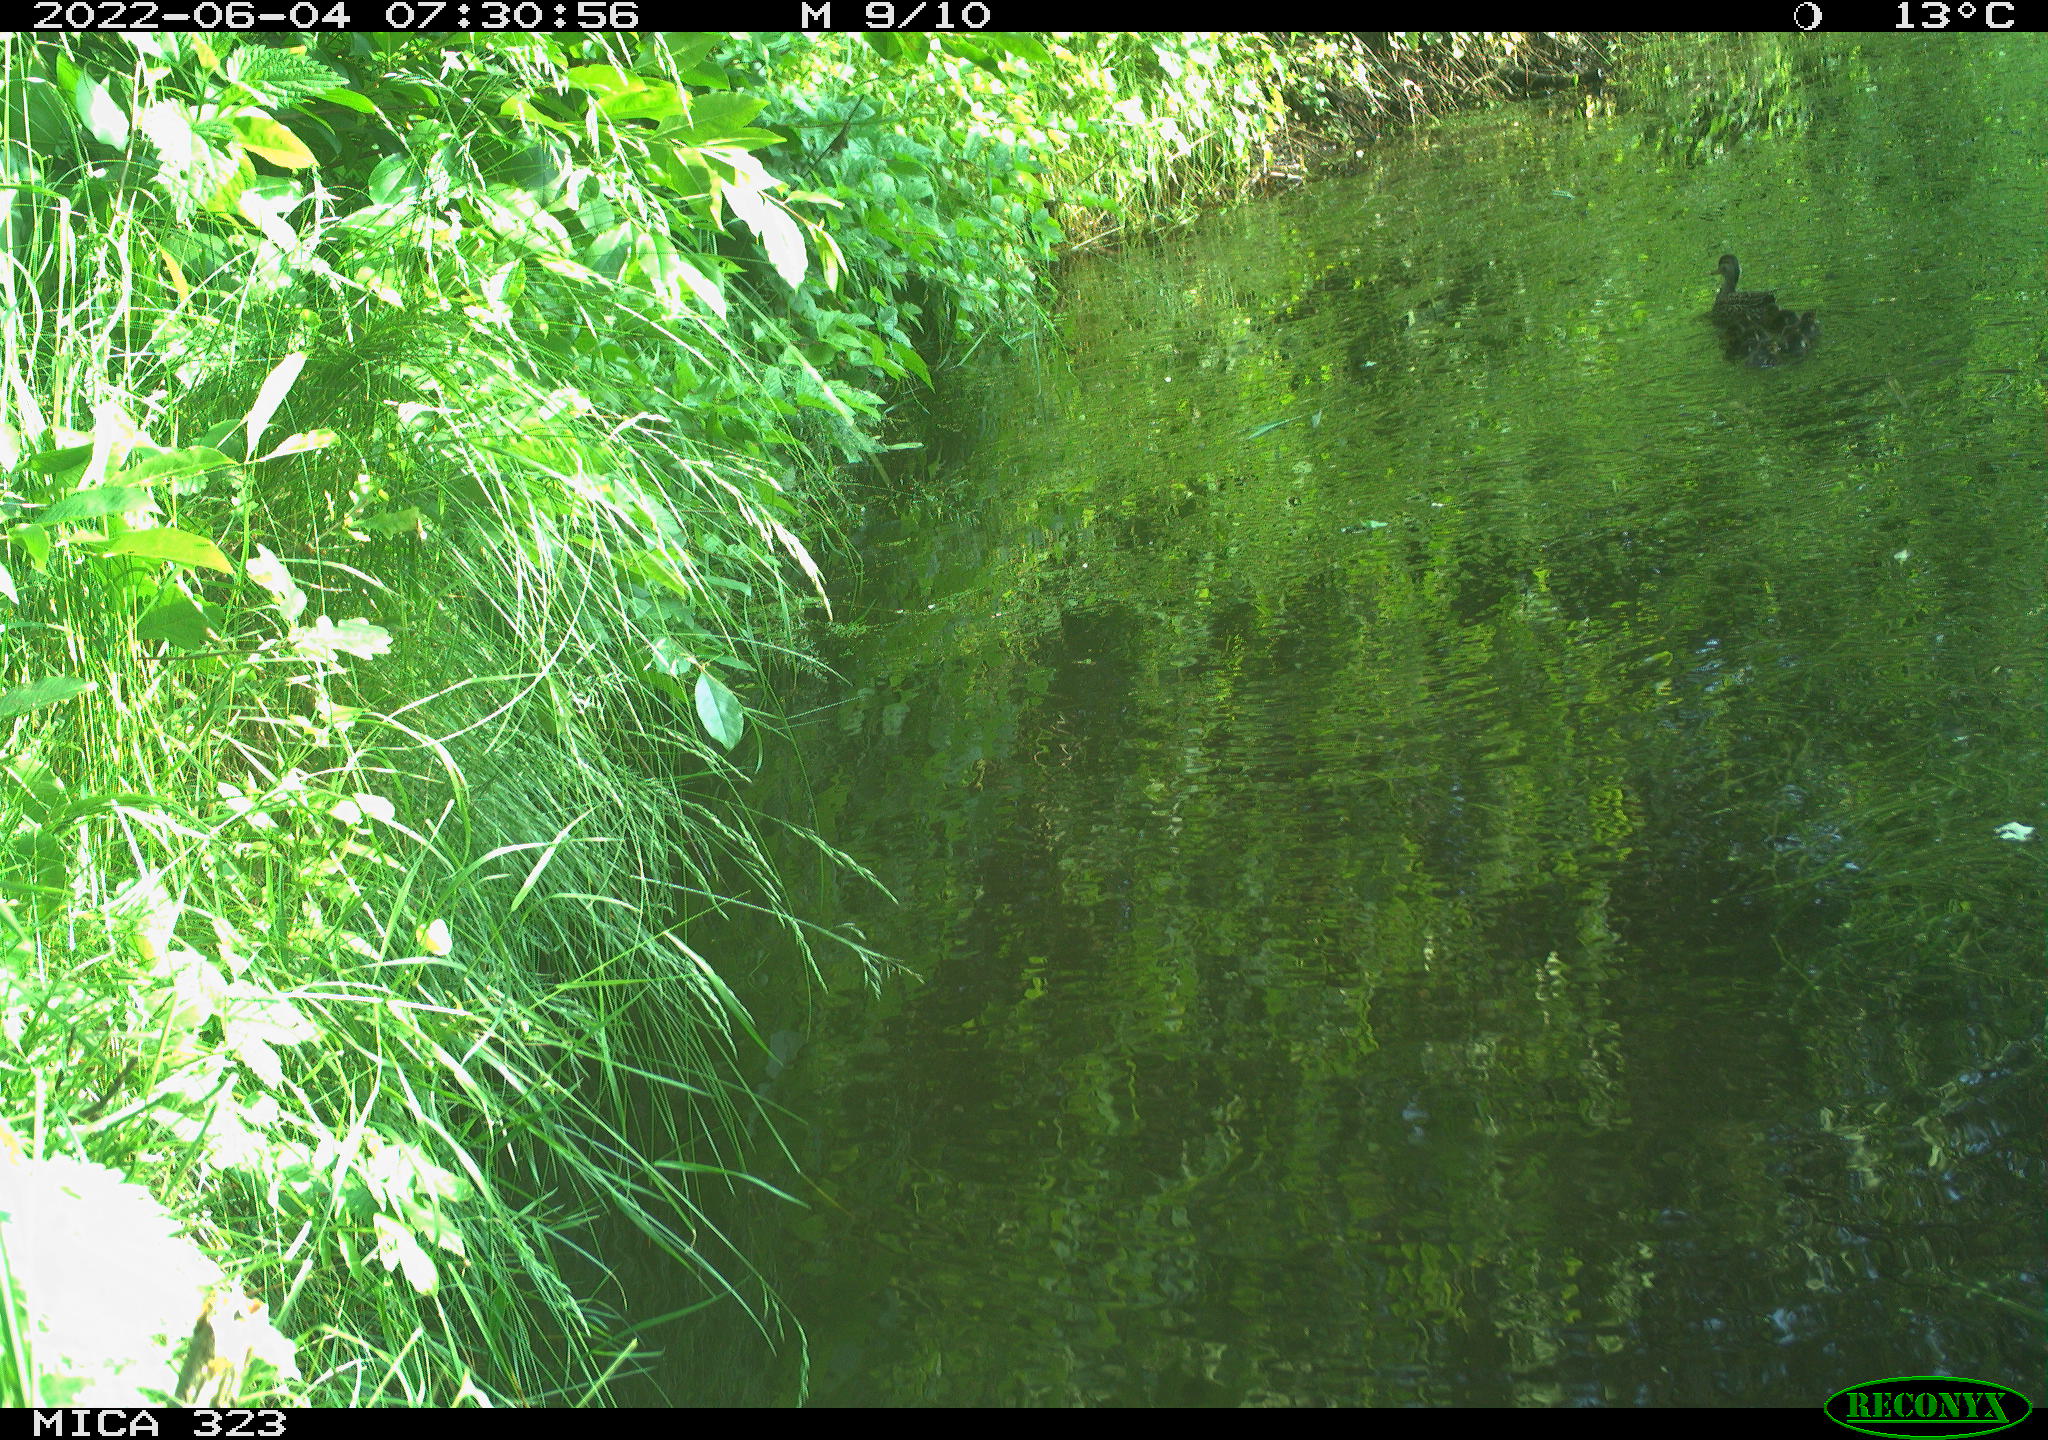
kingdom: Animalia
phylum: Chordata
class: Aves
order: Anseriformes
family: Anatidae
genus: Anas
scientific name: Anas platyrhynchos
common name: Mallard
